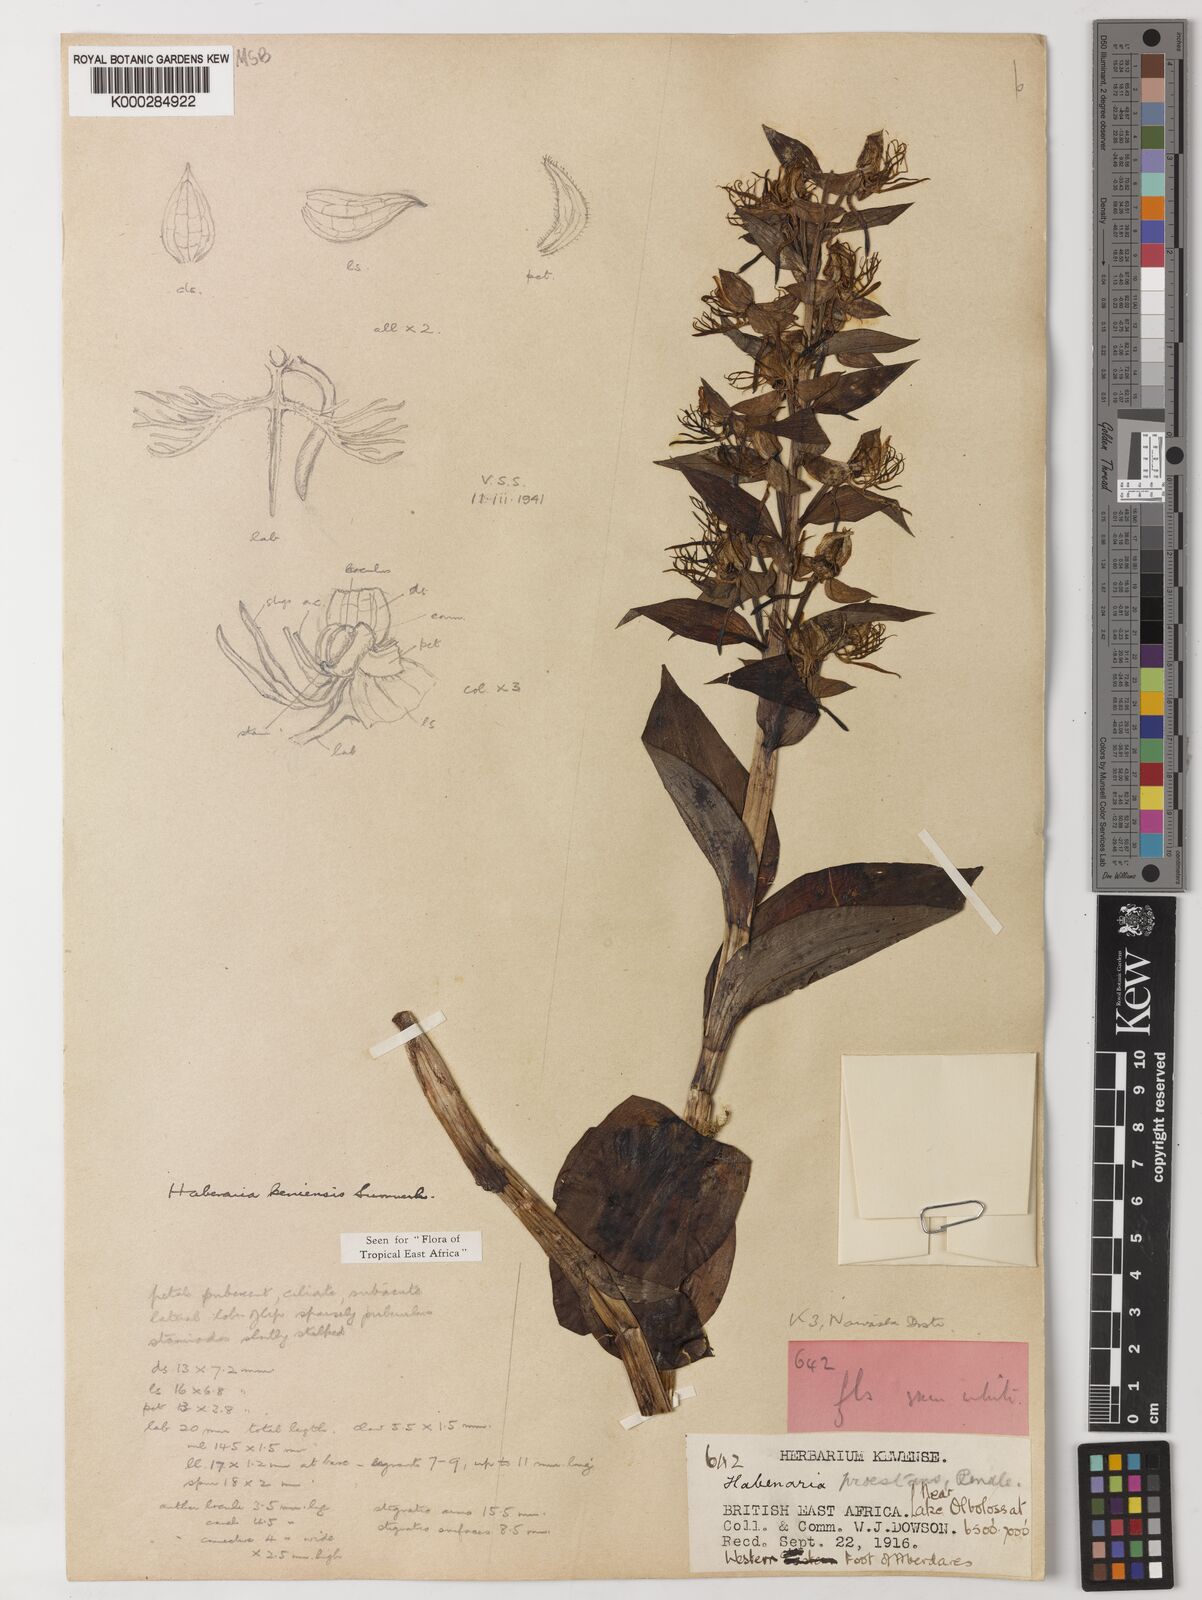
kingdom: Plantae
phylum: Tracheophyta
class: Liliopsida
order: Asparagales
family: Orchidaceae
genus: Habenaria
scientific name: Habenaria keniensis
